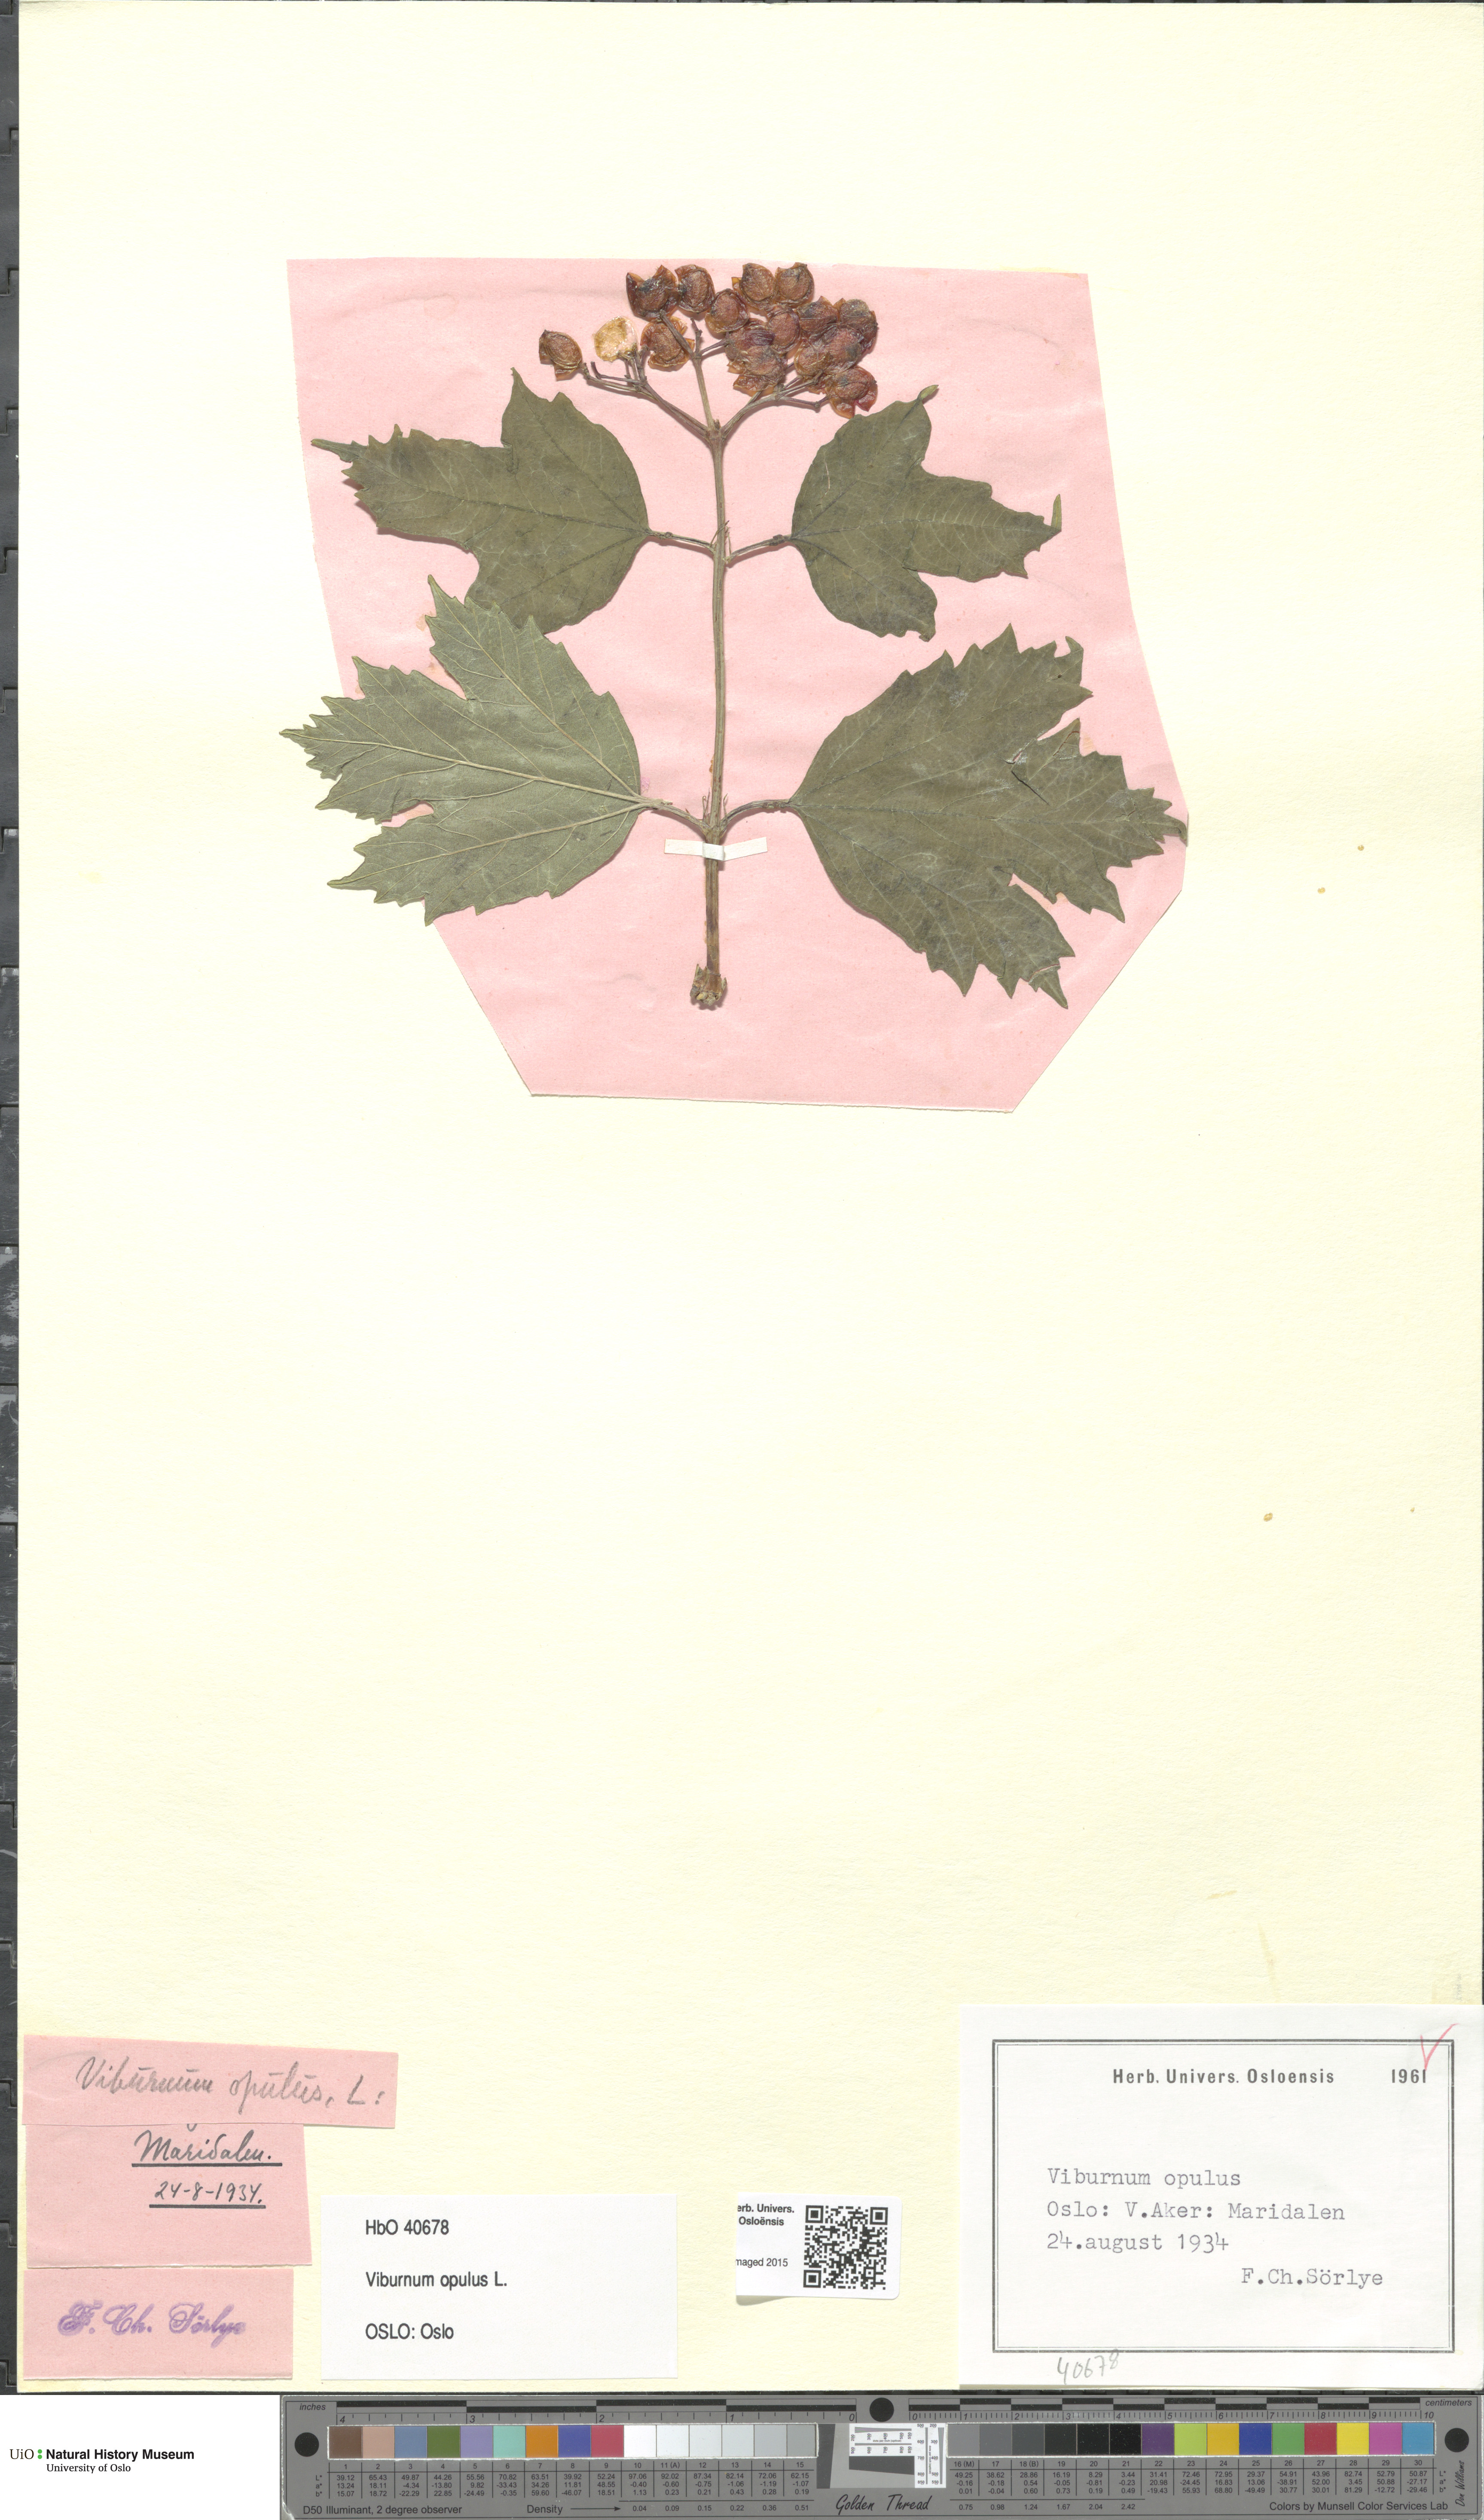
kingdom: Plantae
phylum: Tracheophyta
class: Magnoliopsida
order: Dipsacales
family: Viburnaceae
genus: Viburnum
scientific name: Viburnum opulus
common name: Guelder-rose
